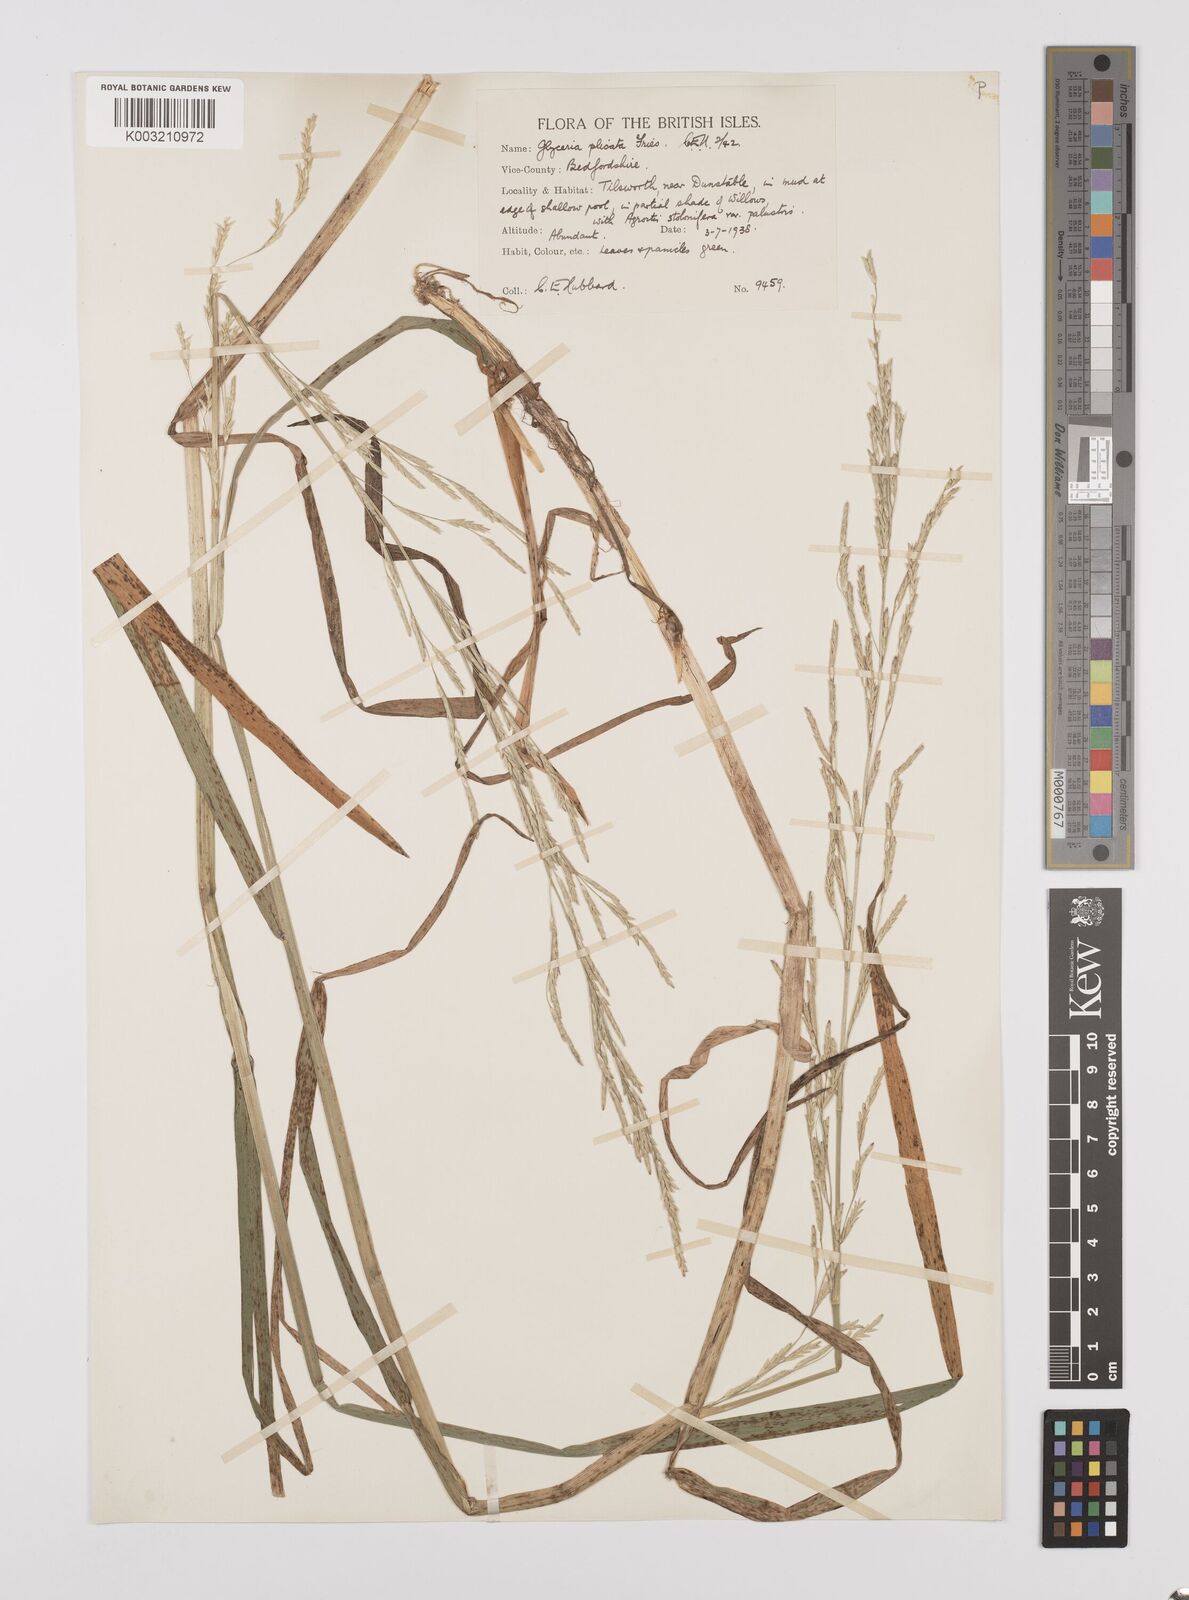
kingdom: Plantae
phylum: Tracheophyta
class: Liliopsida
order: Poales
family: Poaceae
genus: Glyceria
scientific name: Glyceria notata
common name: Plicate sweet-grass
